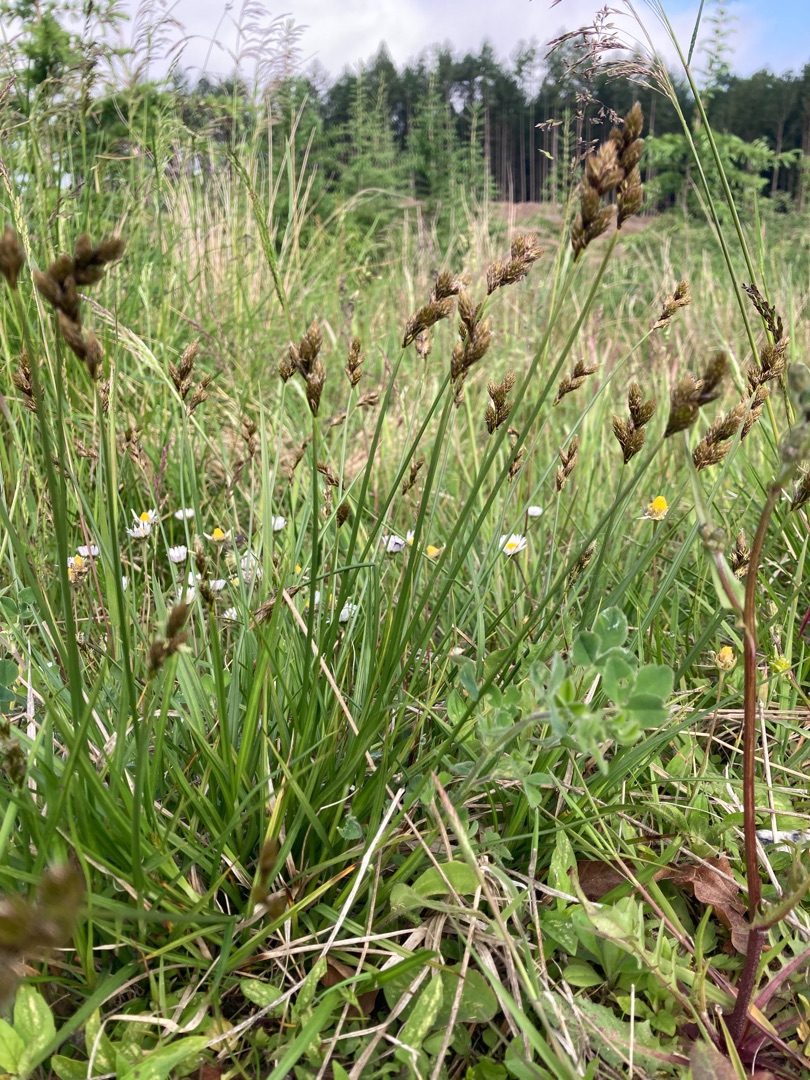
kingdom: Plantae
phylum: Tracheophyta
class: Liliopsida
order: Poales
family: Cyperaceae
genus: Carex
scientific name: Carex leporina
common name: Hare-star
